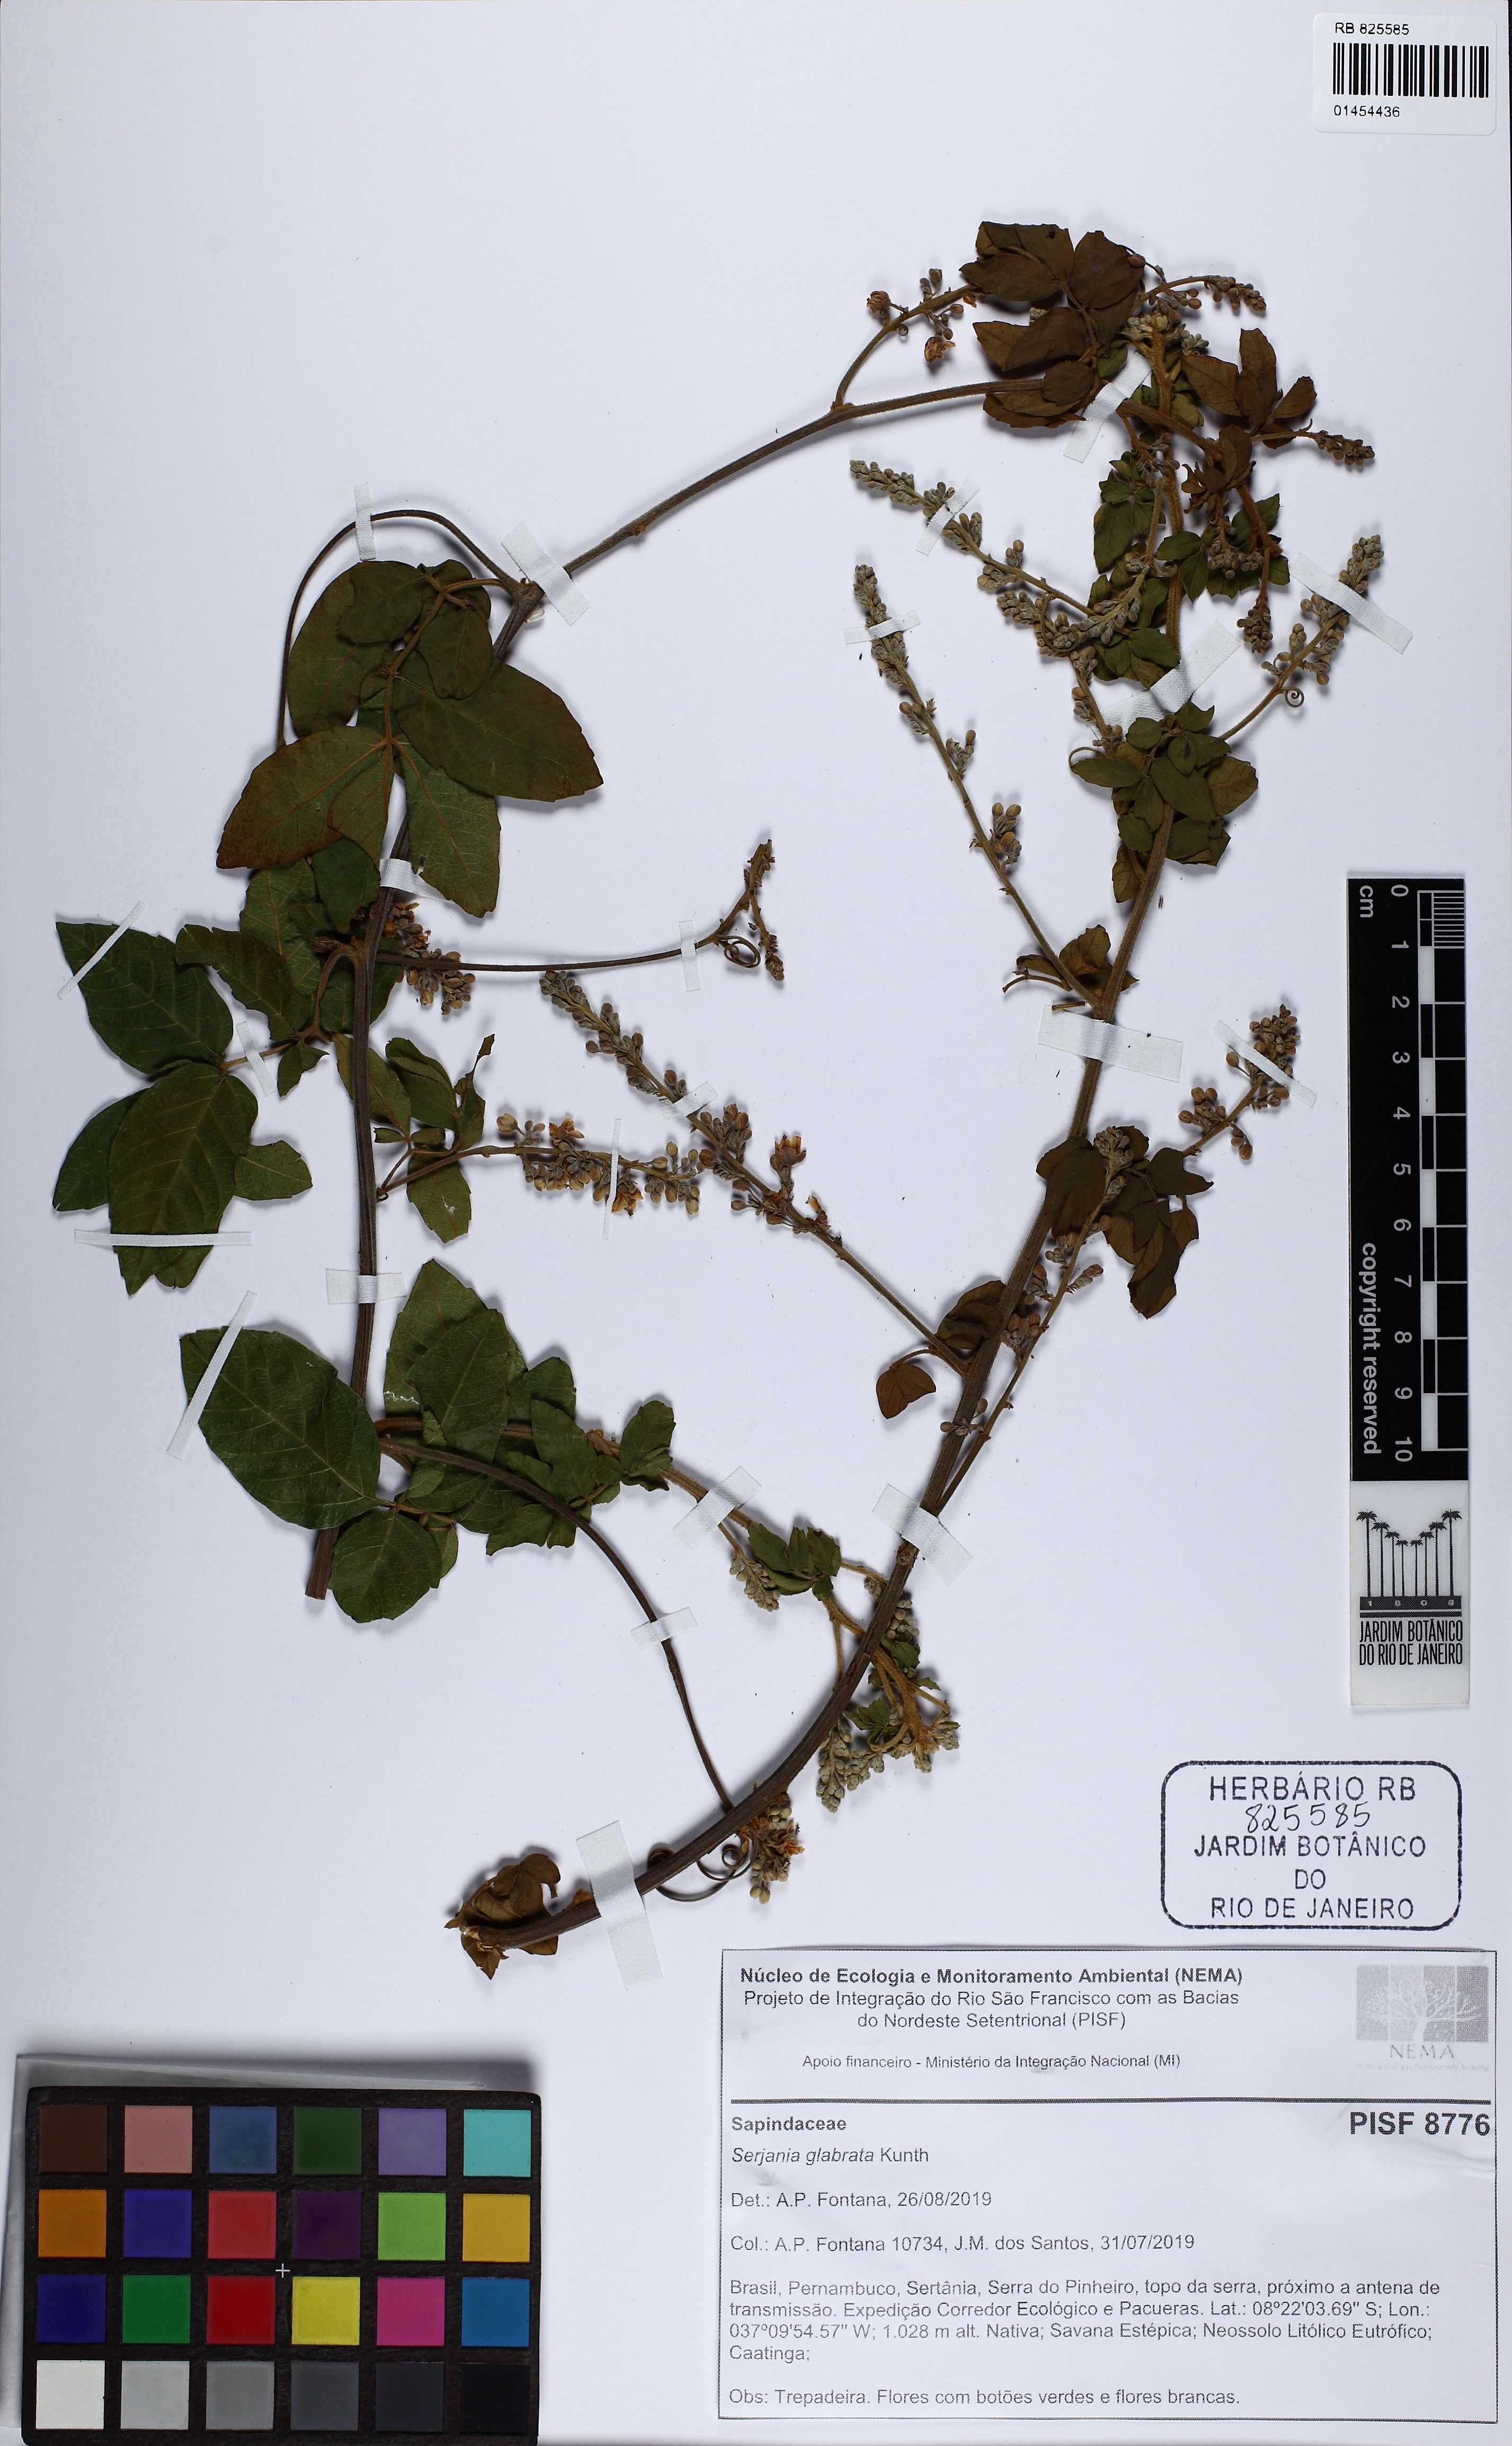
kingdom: Plantae
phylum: Tracheophyta
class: Magnoliopsida
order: Sapindales
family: Sapindaceae
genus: Serjania
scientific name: Serjania glabrata
